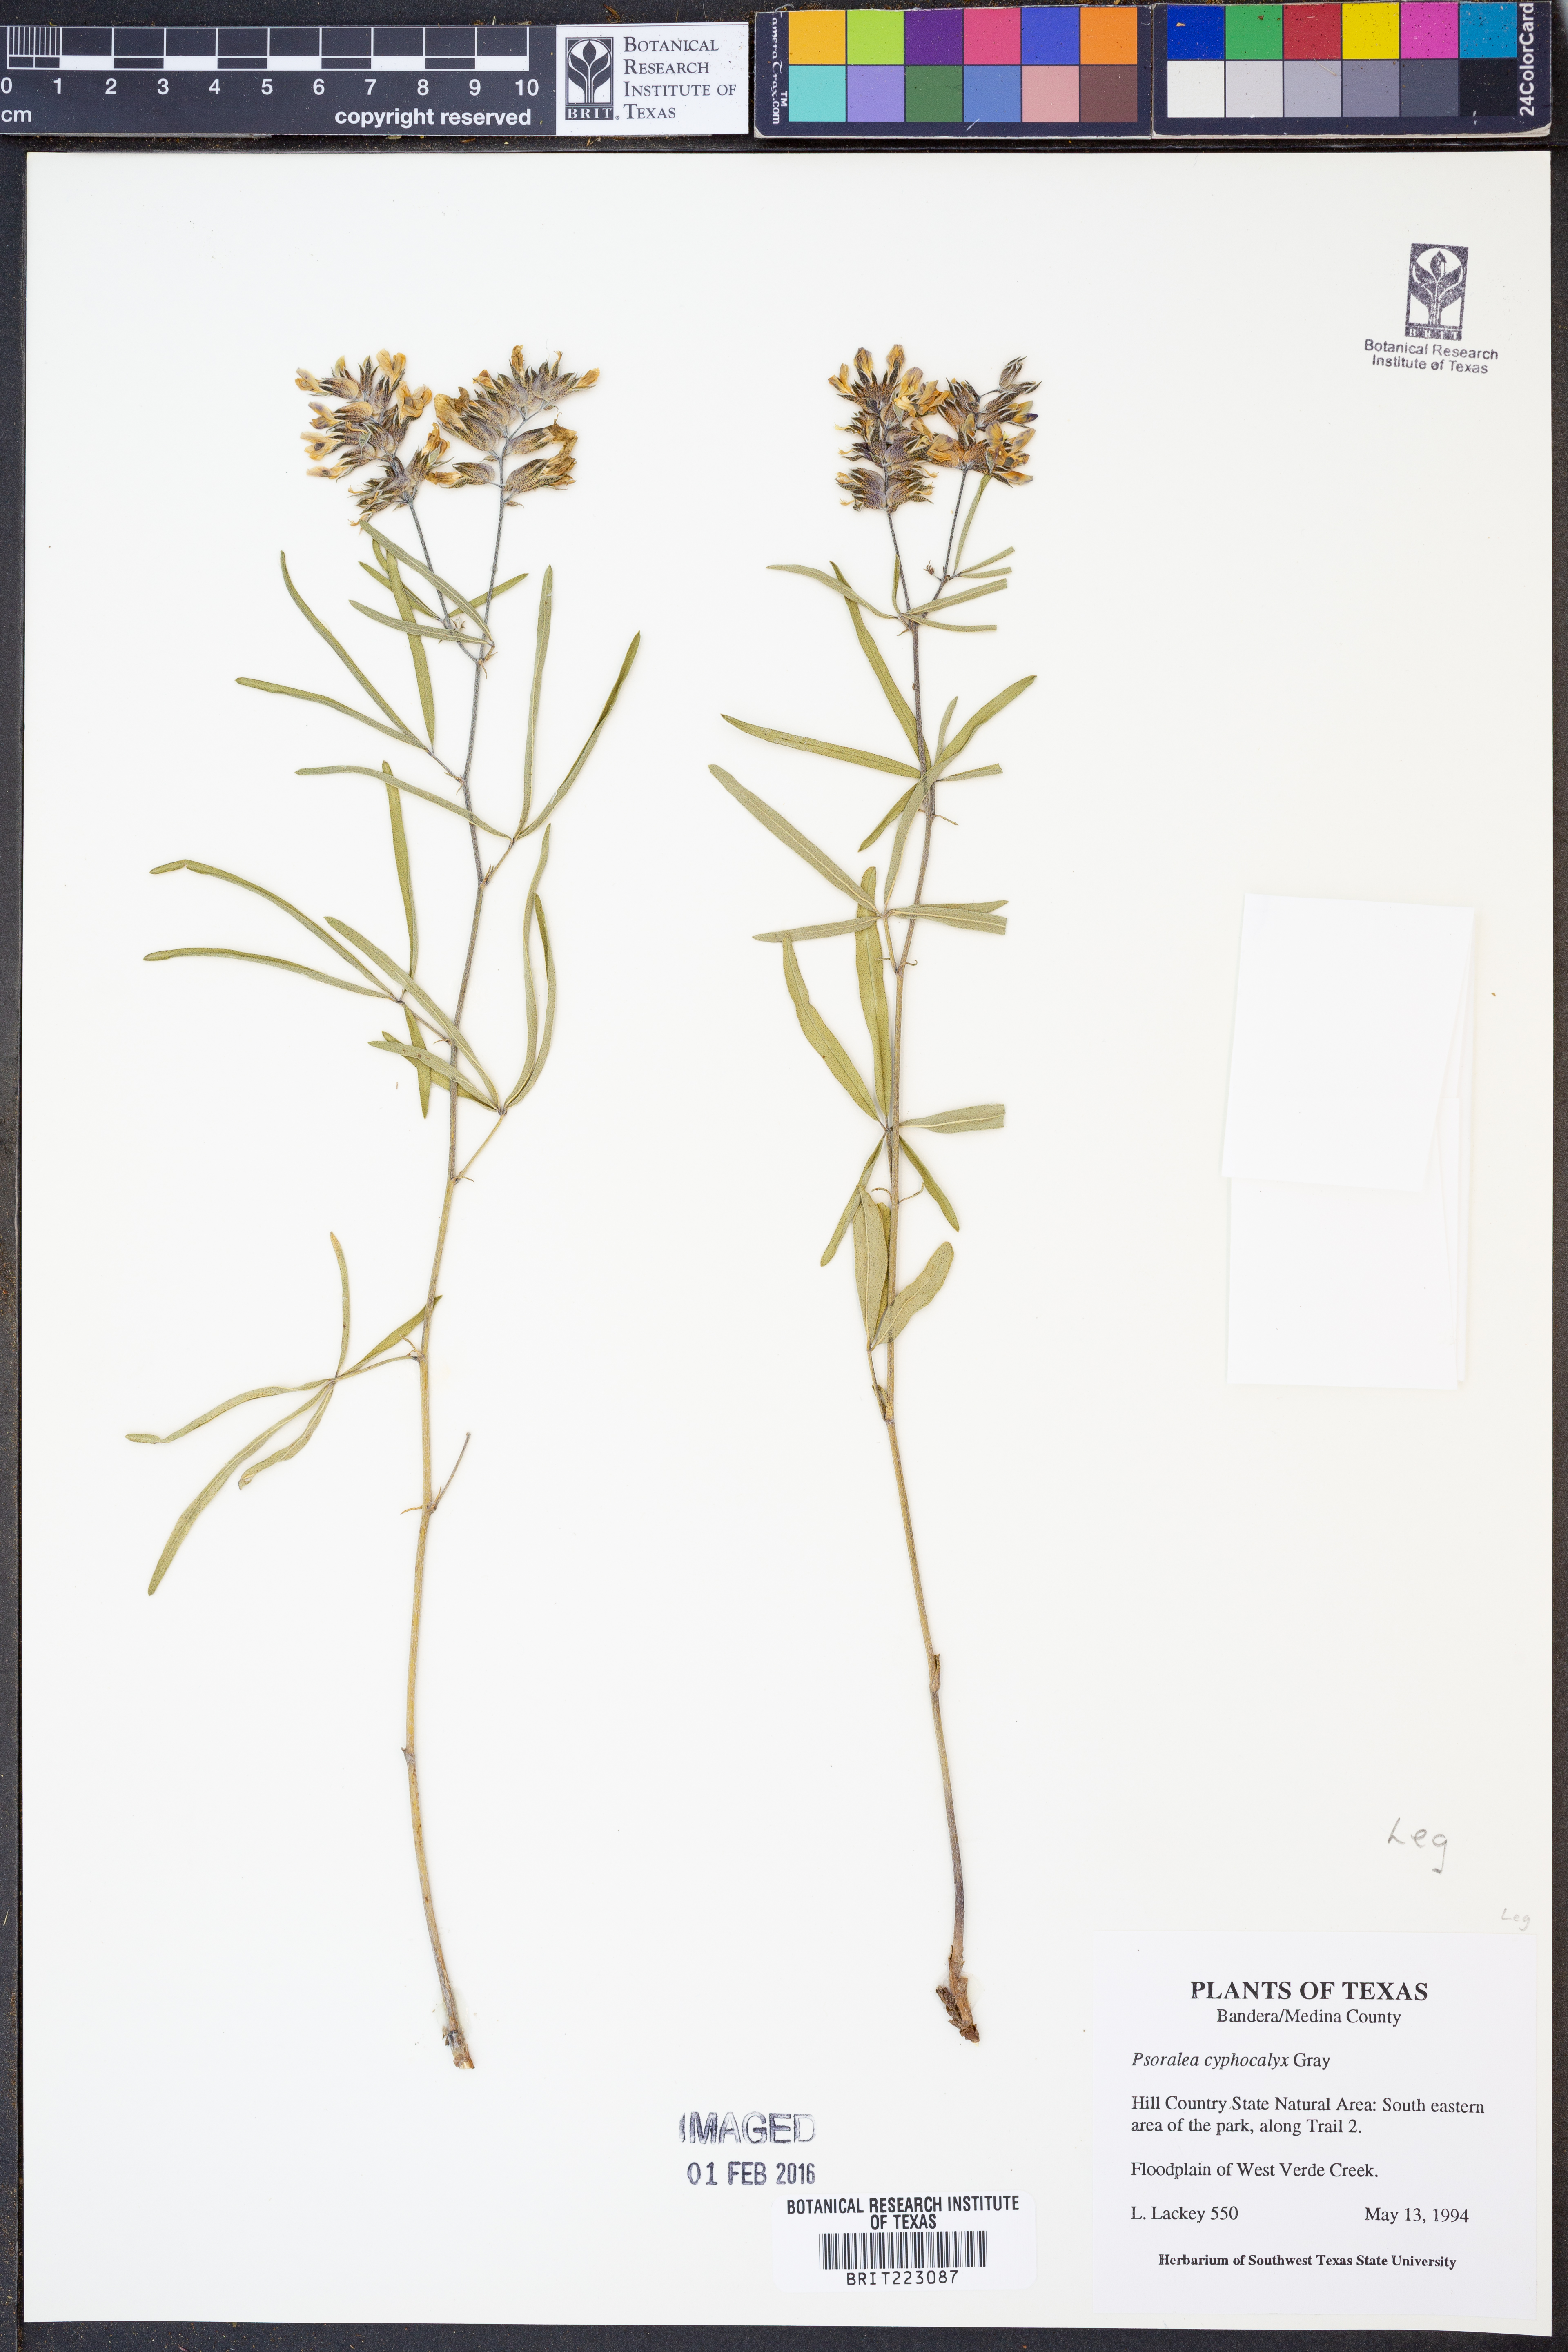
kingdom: Plantae
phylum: Tracheophyta
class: Magnoliopsida
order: Fabales
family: Fabaceae
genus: Pediomelum
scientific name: Pediomelum cyphocalyx
